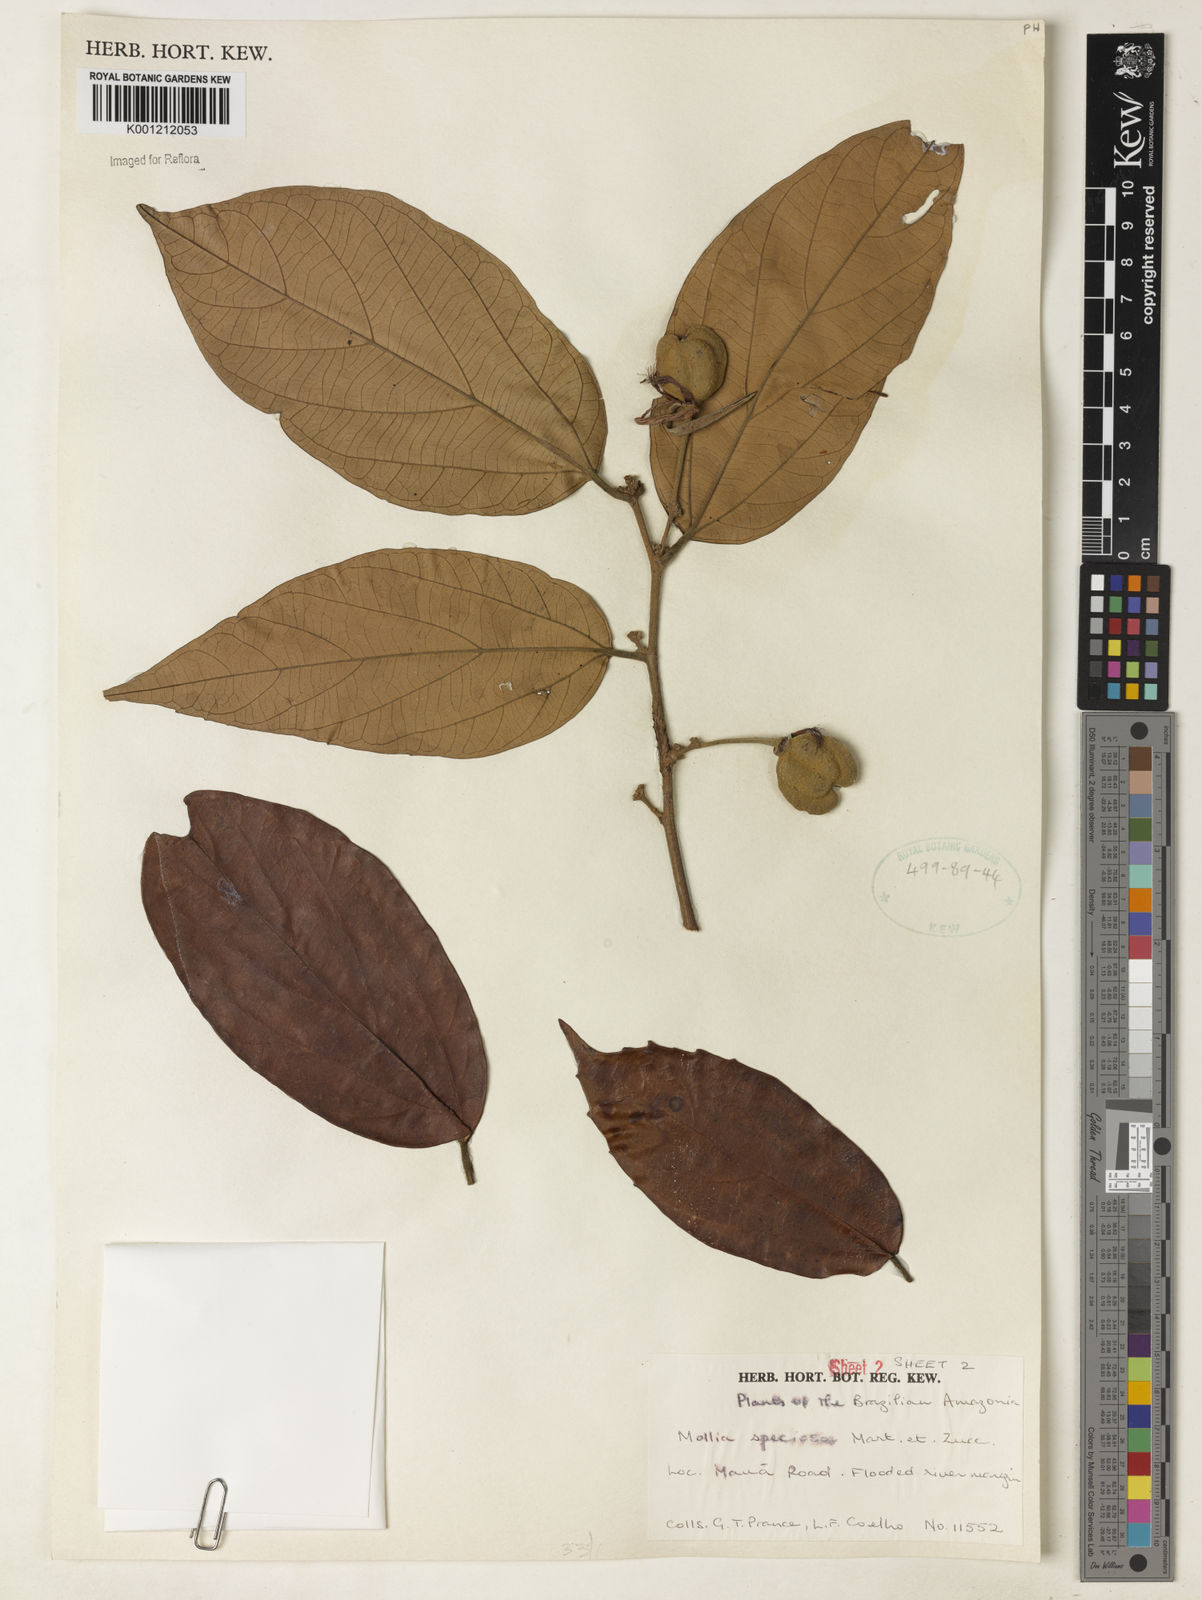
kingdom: Plantae
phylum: Tracheophyta
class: Magnoliopsida
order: Malvales
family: Malvaceae
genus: Mollia
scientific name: Mollia speciosa
